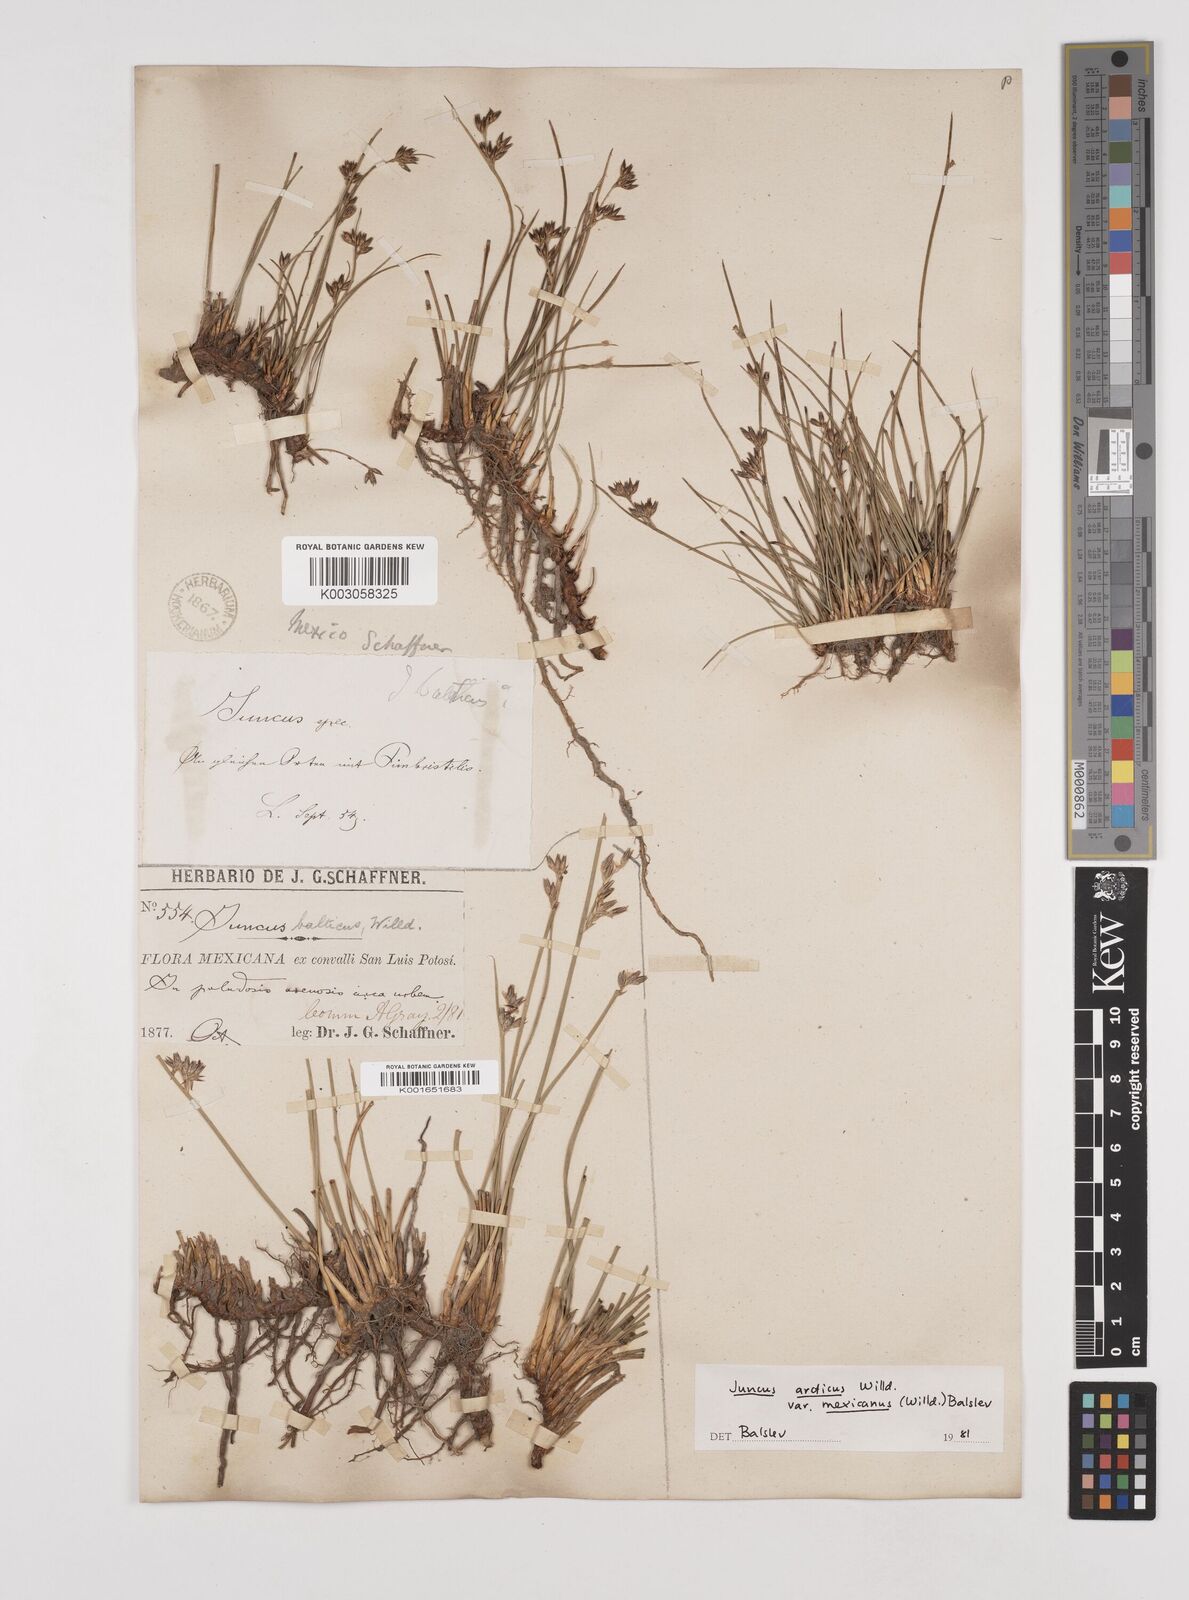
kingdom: Plantae
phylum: Tracheophyta
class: Liliopsida
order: Poales
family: Juncaceae
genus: Juncus
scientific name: Juncus arcticus
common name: Arctic rush
